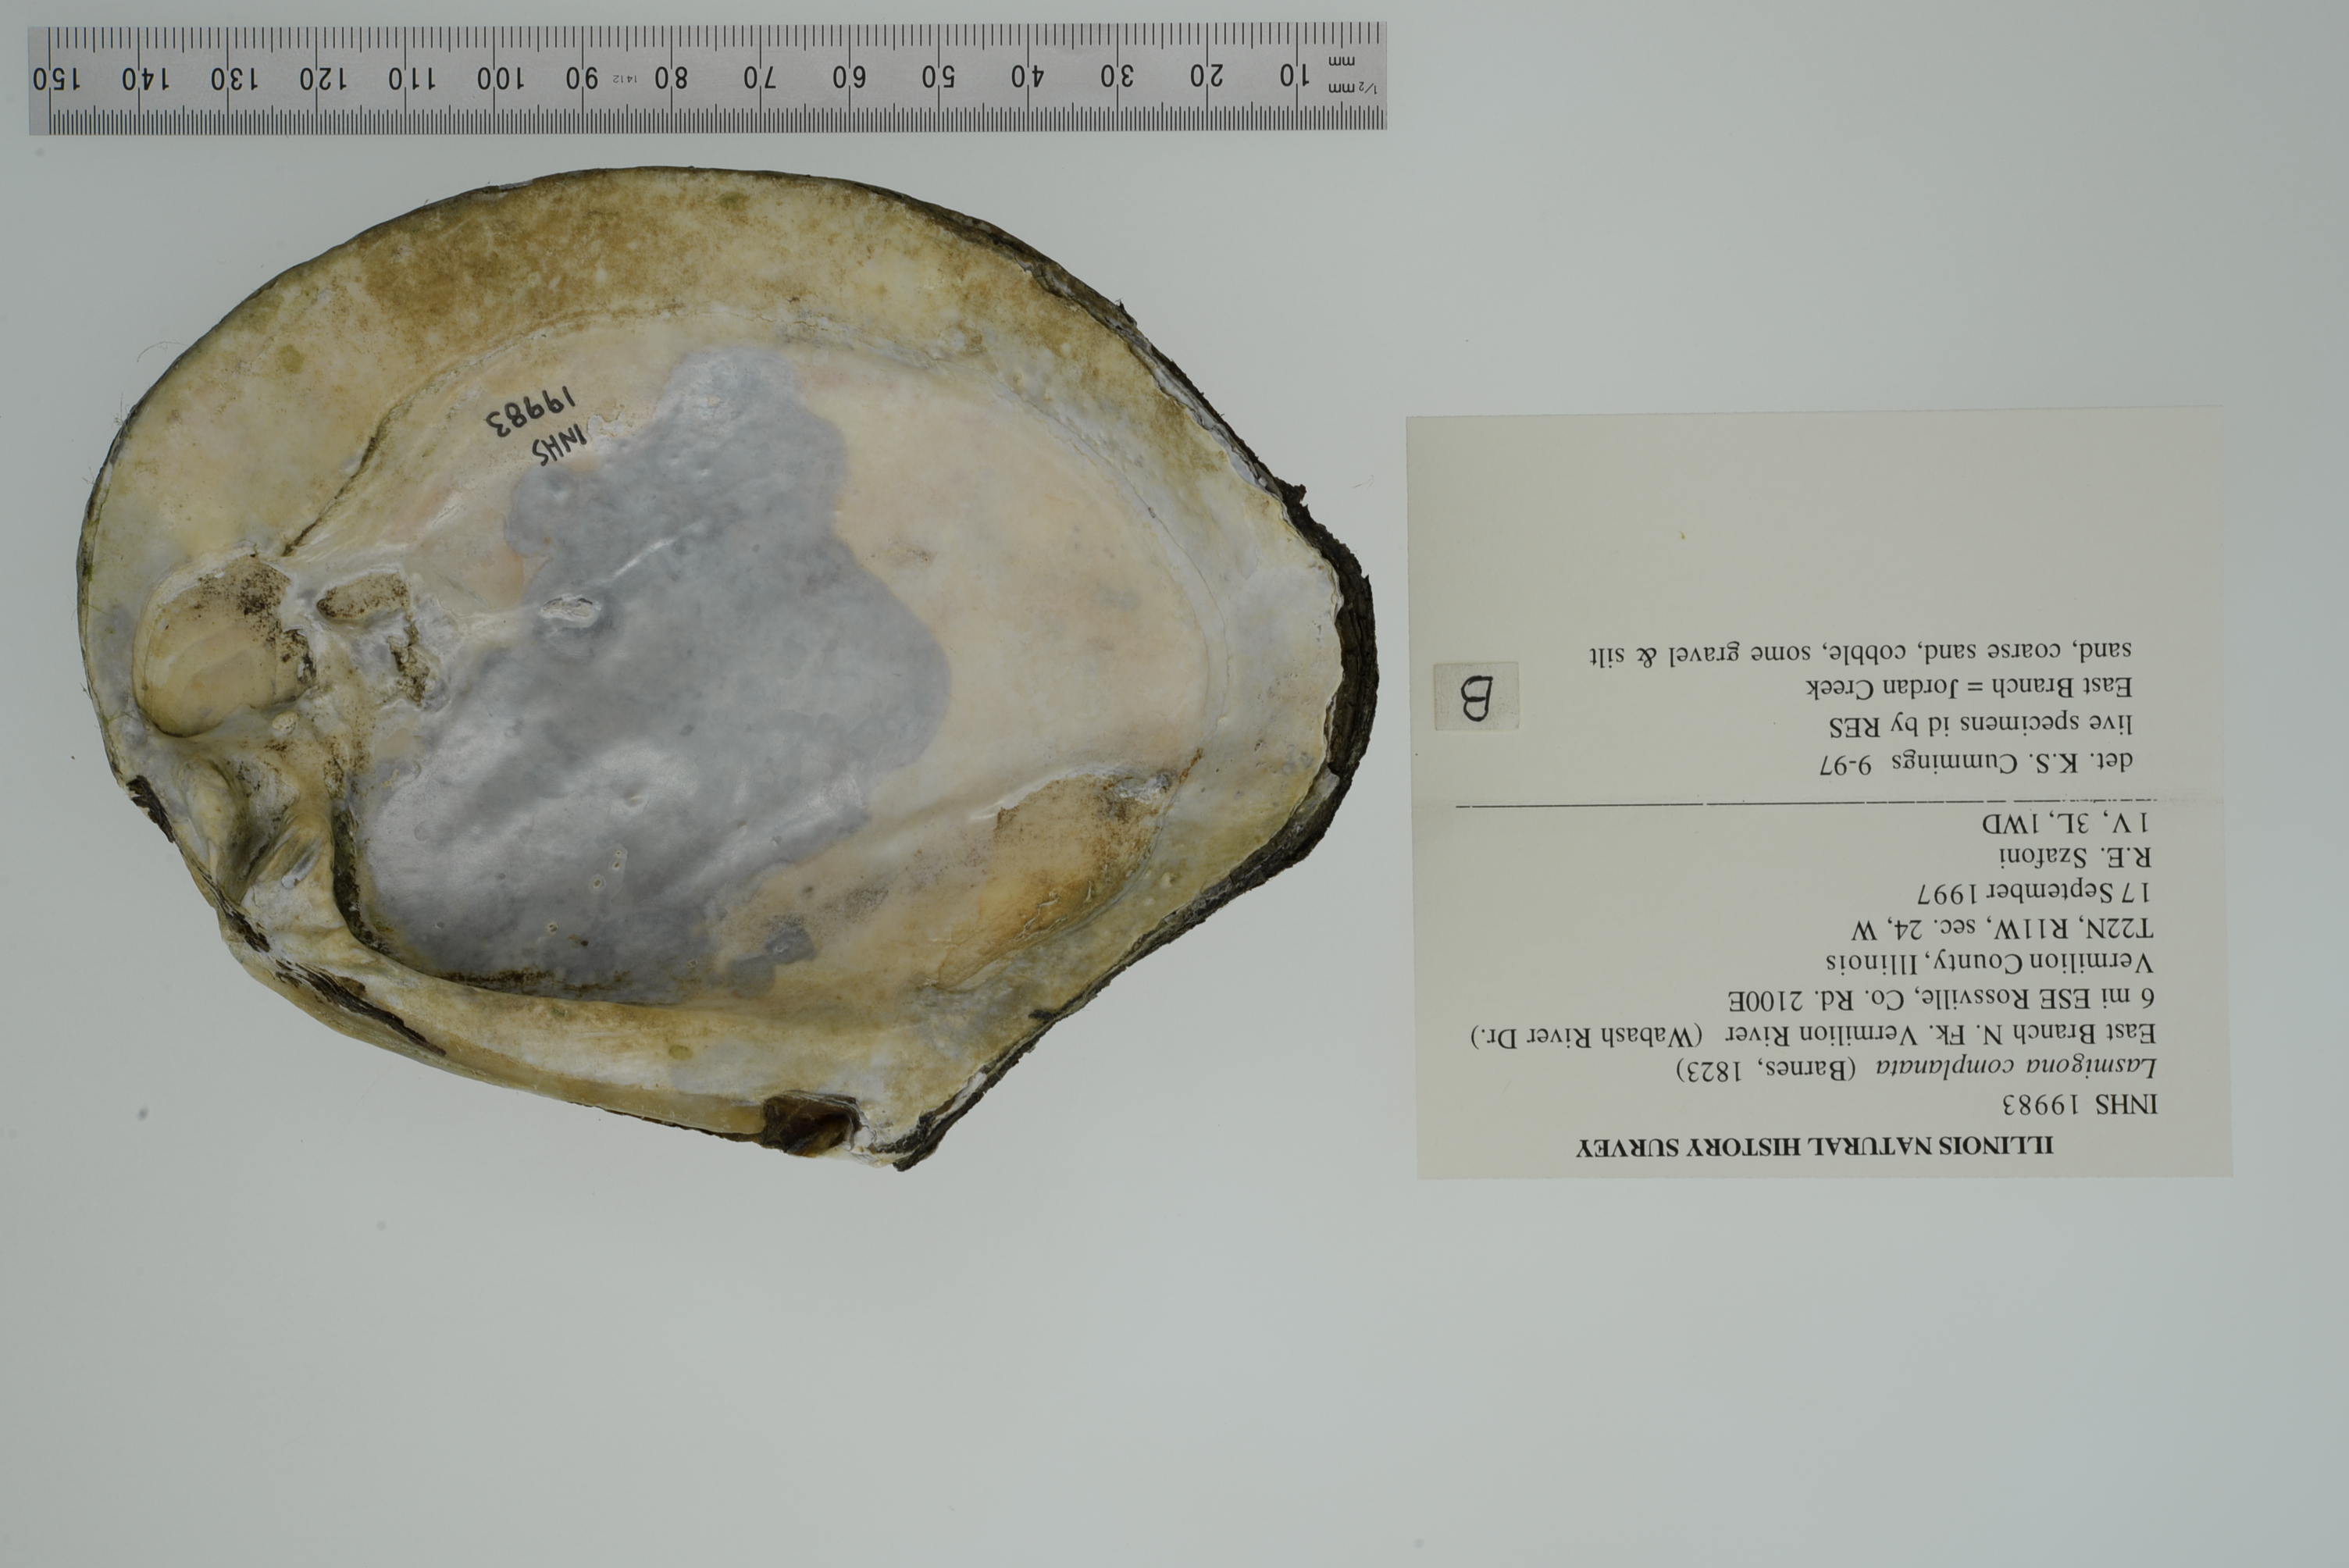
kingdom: Animalia
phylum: Mollusca
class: Bivalvia
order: Unionida
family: Unionidae
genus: Lasmigona
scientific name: Lasmigona complanata
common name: White heelsplitter
